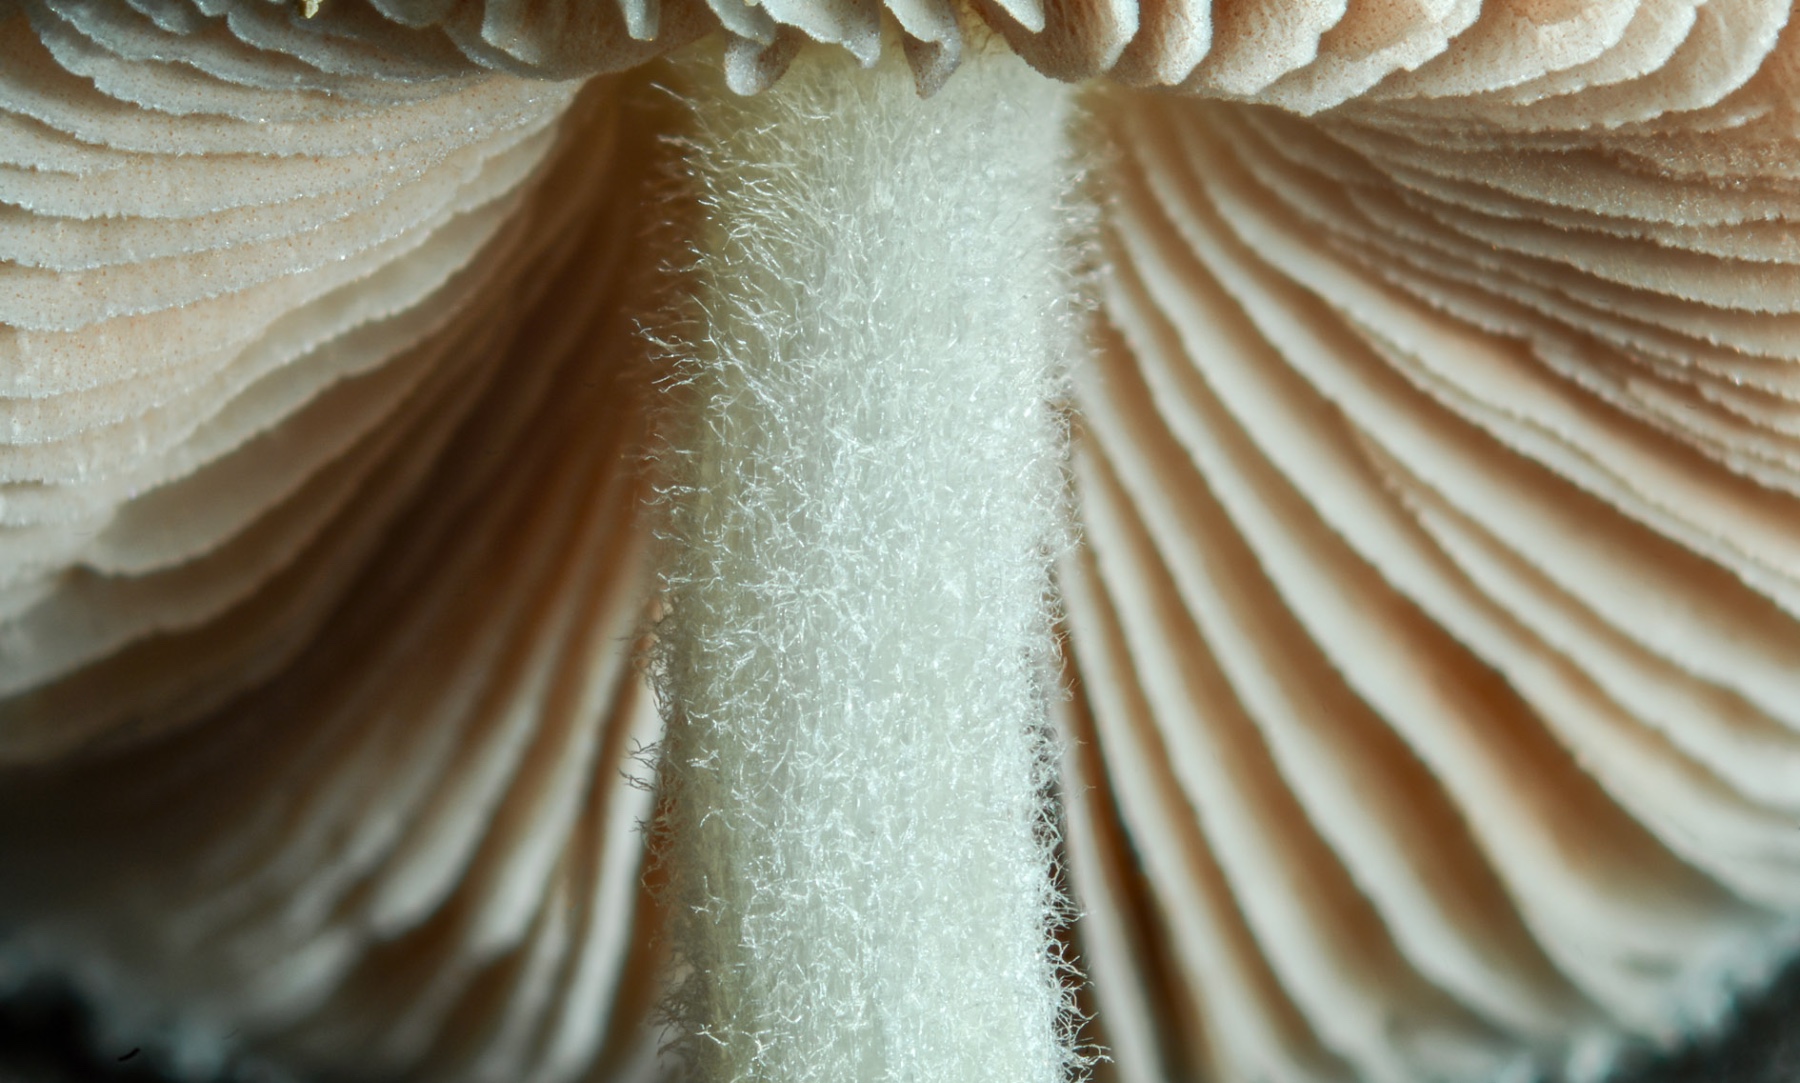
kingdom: Fungi
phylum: Basidiomycota
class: Agaricomycetes
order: Agaricales
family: Pluteaceae
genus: Volvariella
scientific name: Volvariella hypopithys
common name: dunstokket posesvamp
